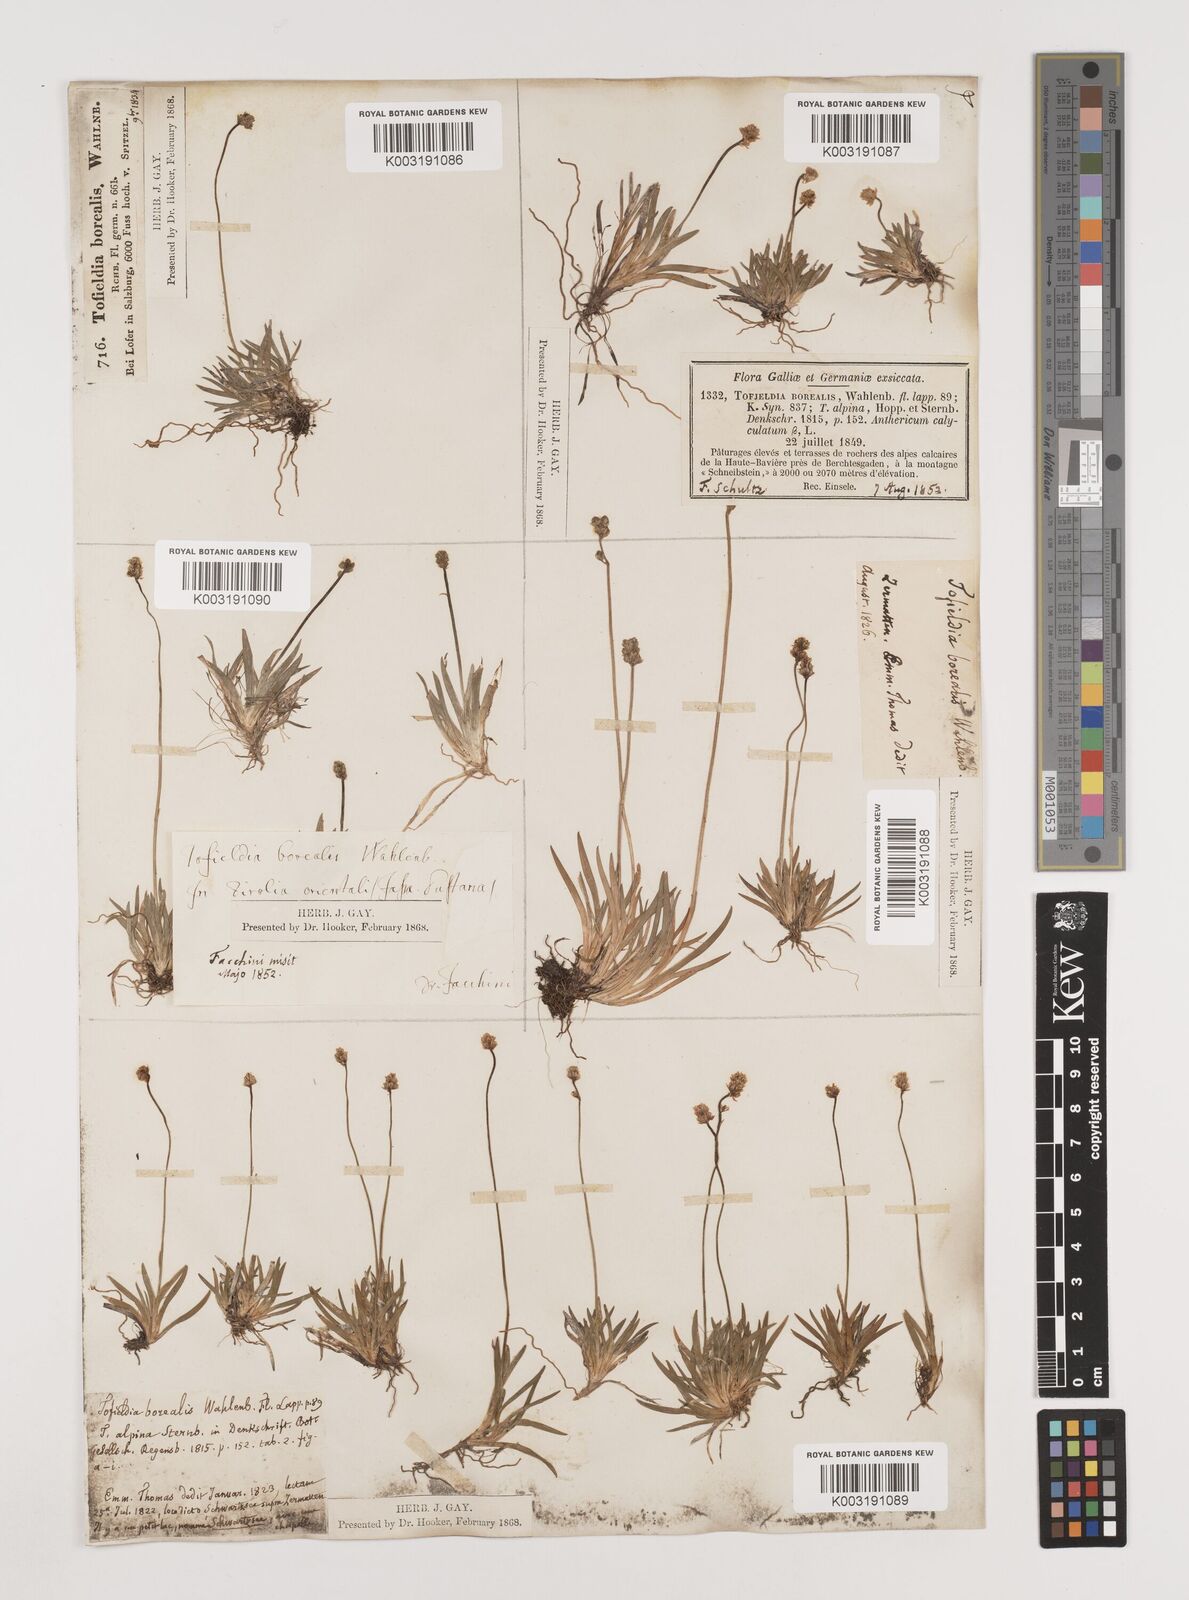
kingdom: Plantae
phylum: Tracheophyta
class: Liliopsida
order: Alismatales
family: Tofieldiaceae
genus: Tofieldia
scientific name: Tofieldia pusilla
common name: Scottish false asphodel
